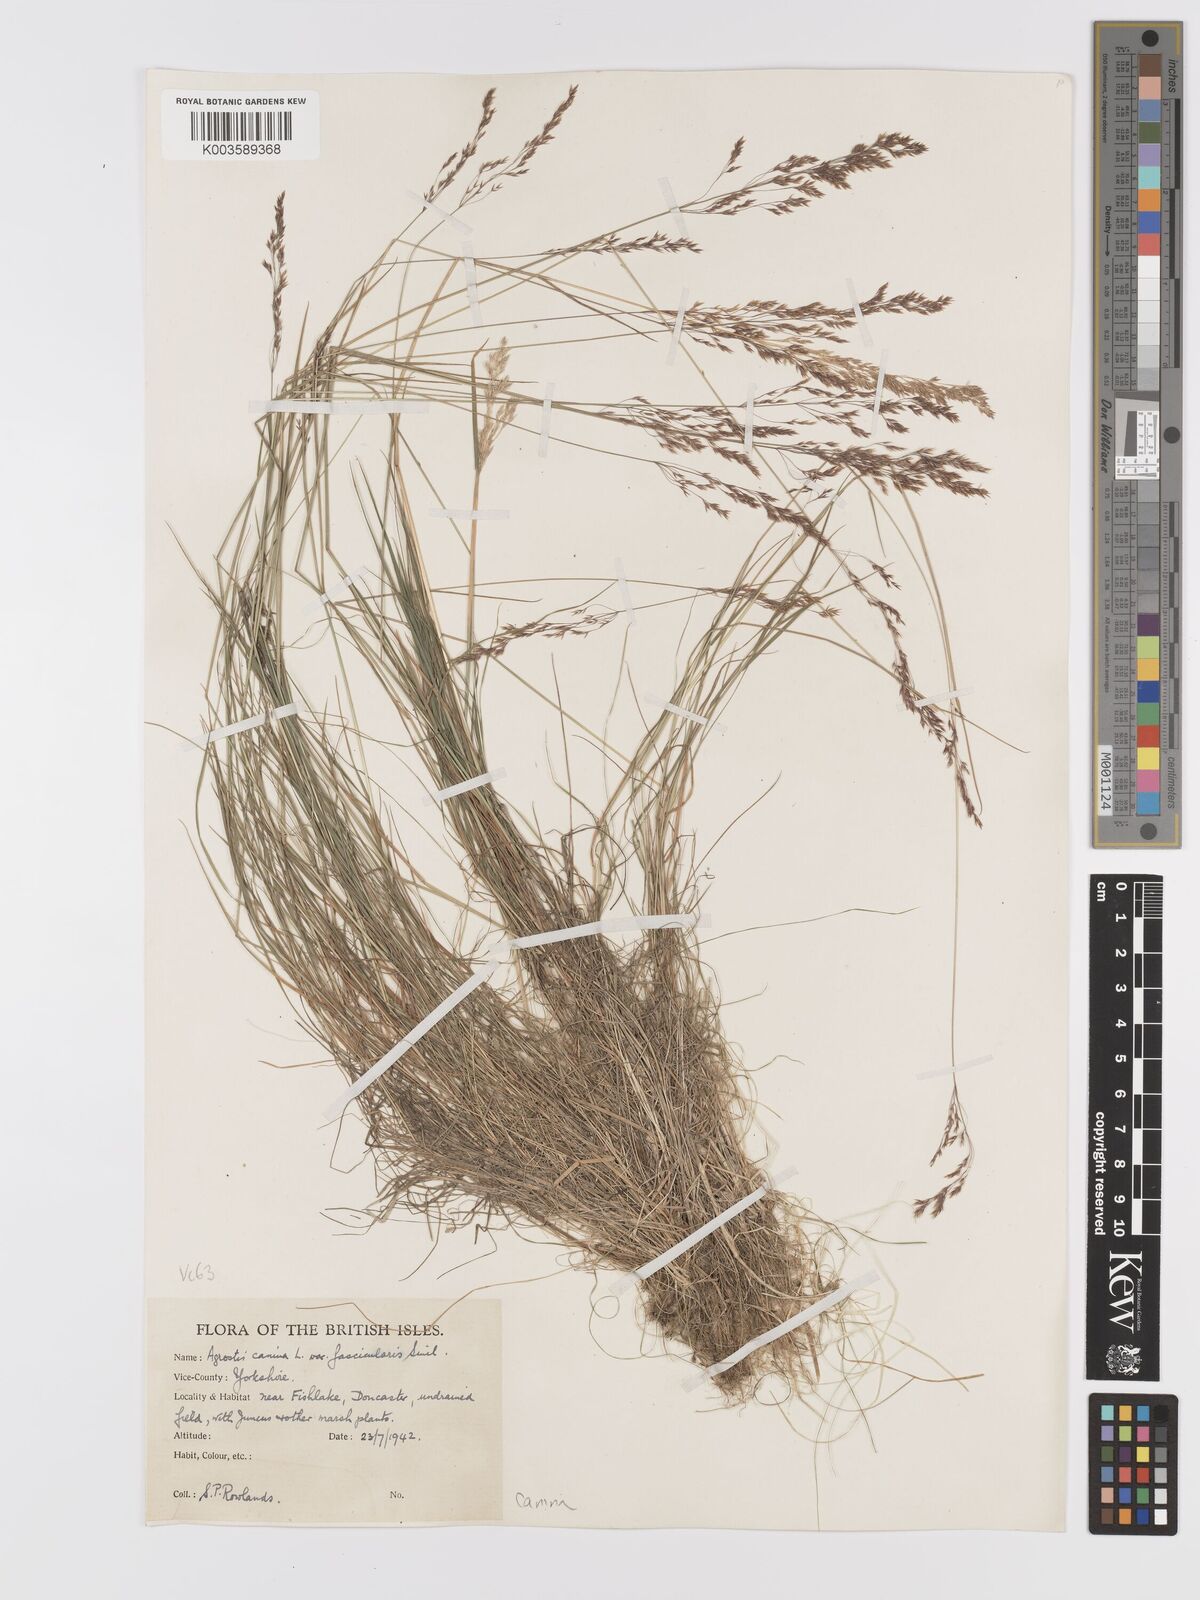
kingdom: Plantae
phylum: Tracheophyta
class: Liliopsida
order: Poales
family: Poaceae
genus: Agrostis
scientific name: Agrostis canina
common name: Velvet bent
